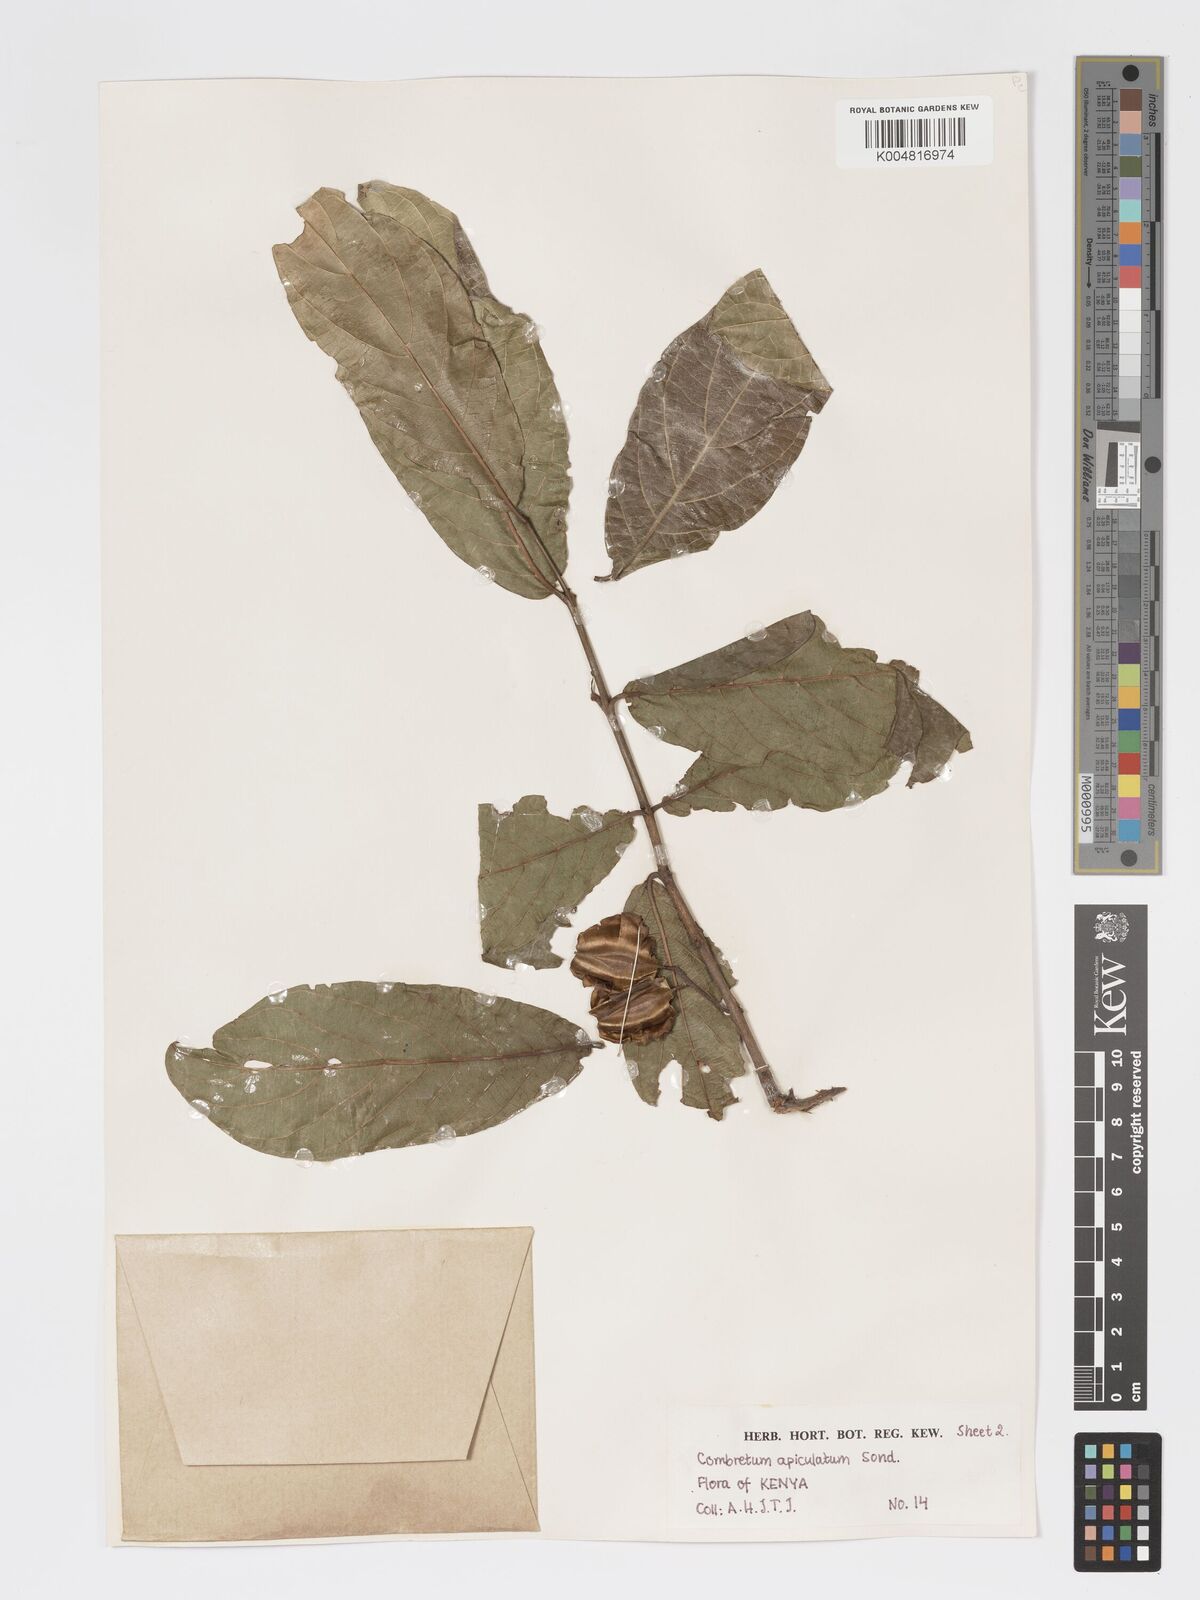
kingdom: Plantae
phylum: Tracheophyta
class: Magnoliopsida
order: Myrtales
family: Combretaceae
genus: Combretum
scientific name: Combretum apiculatum
